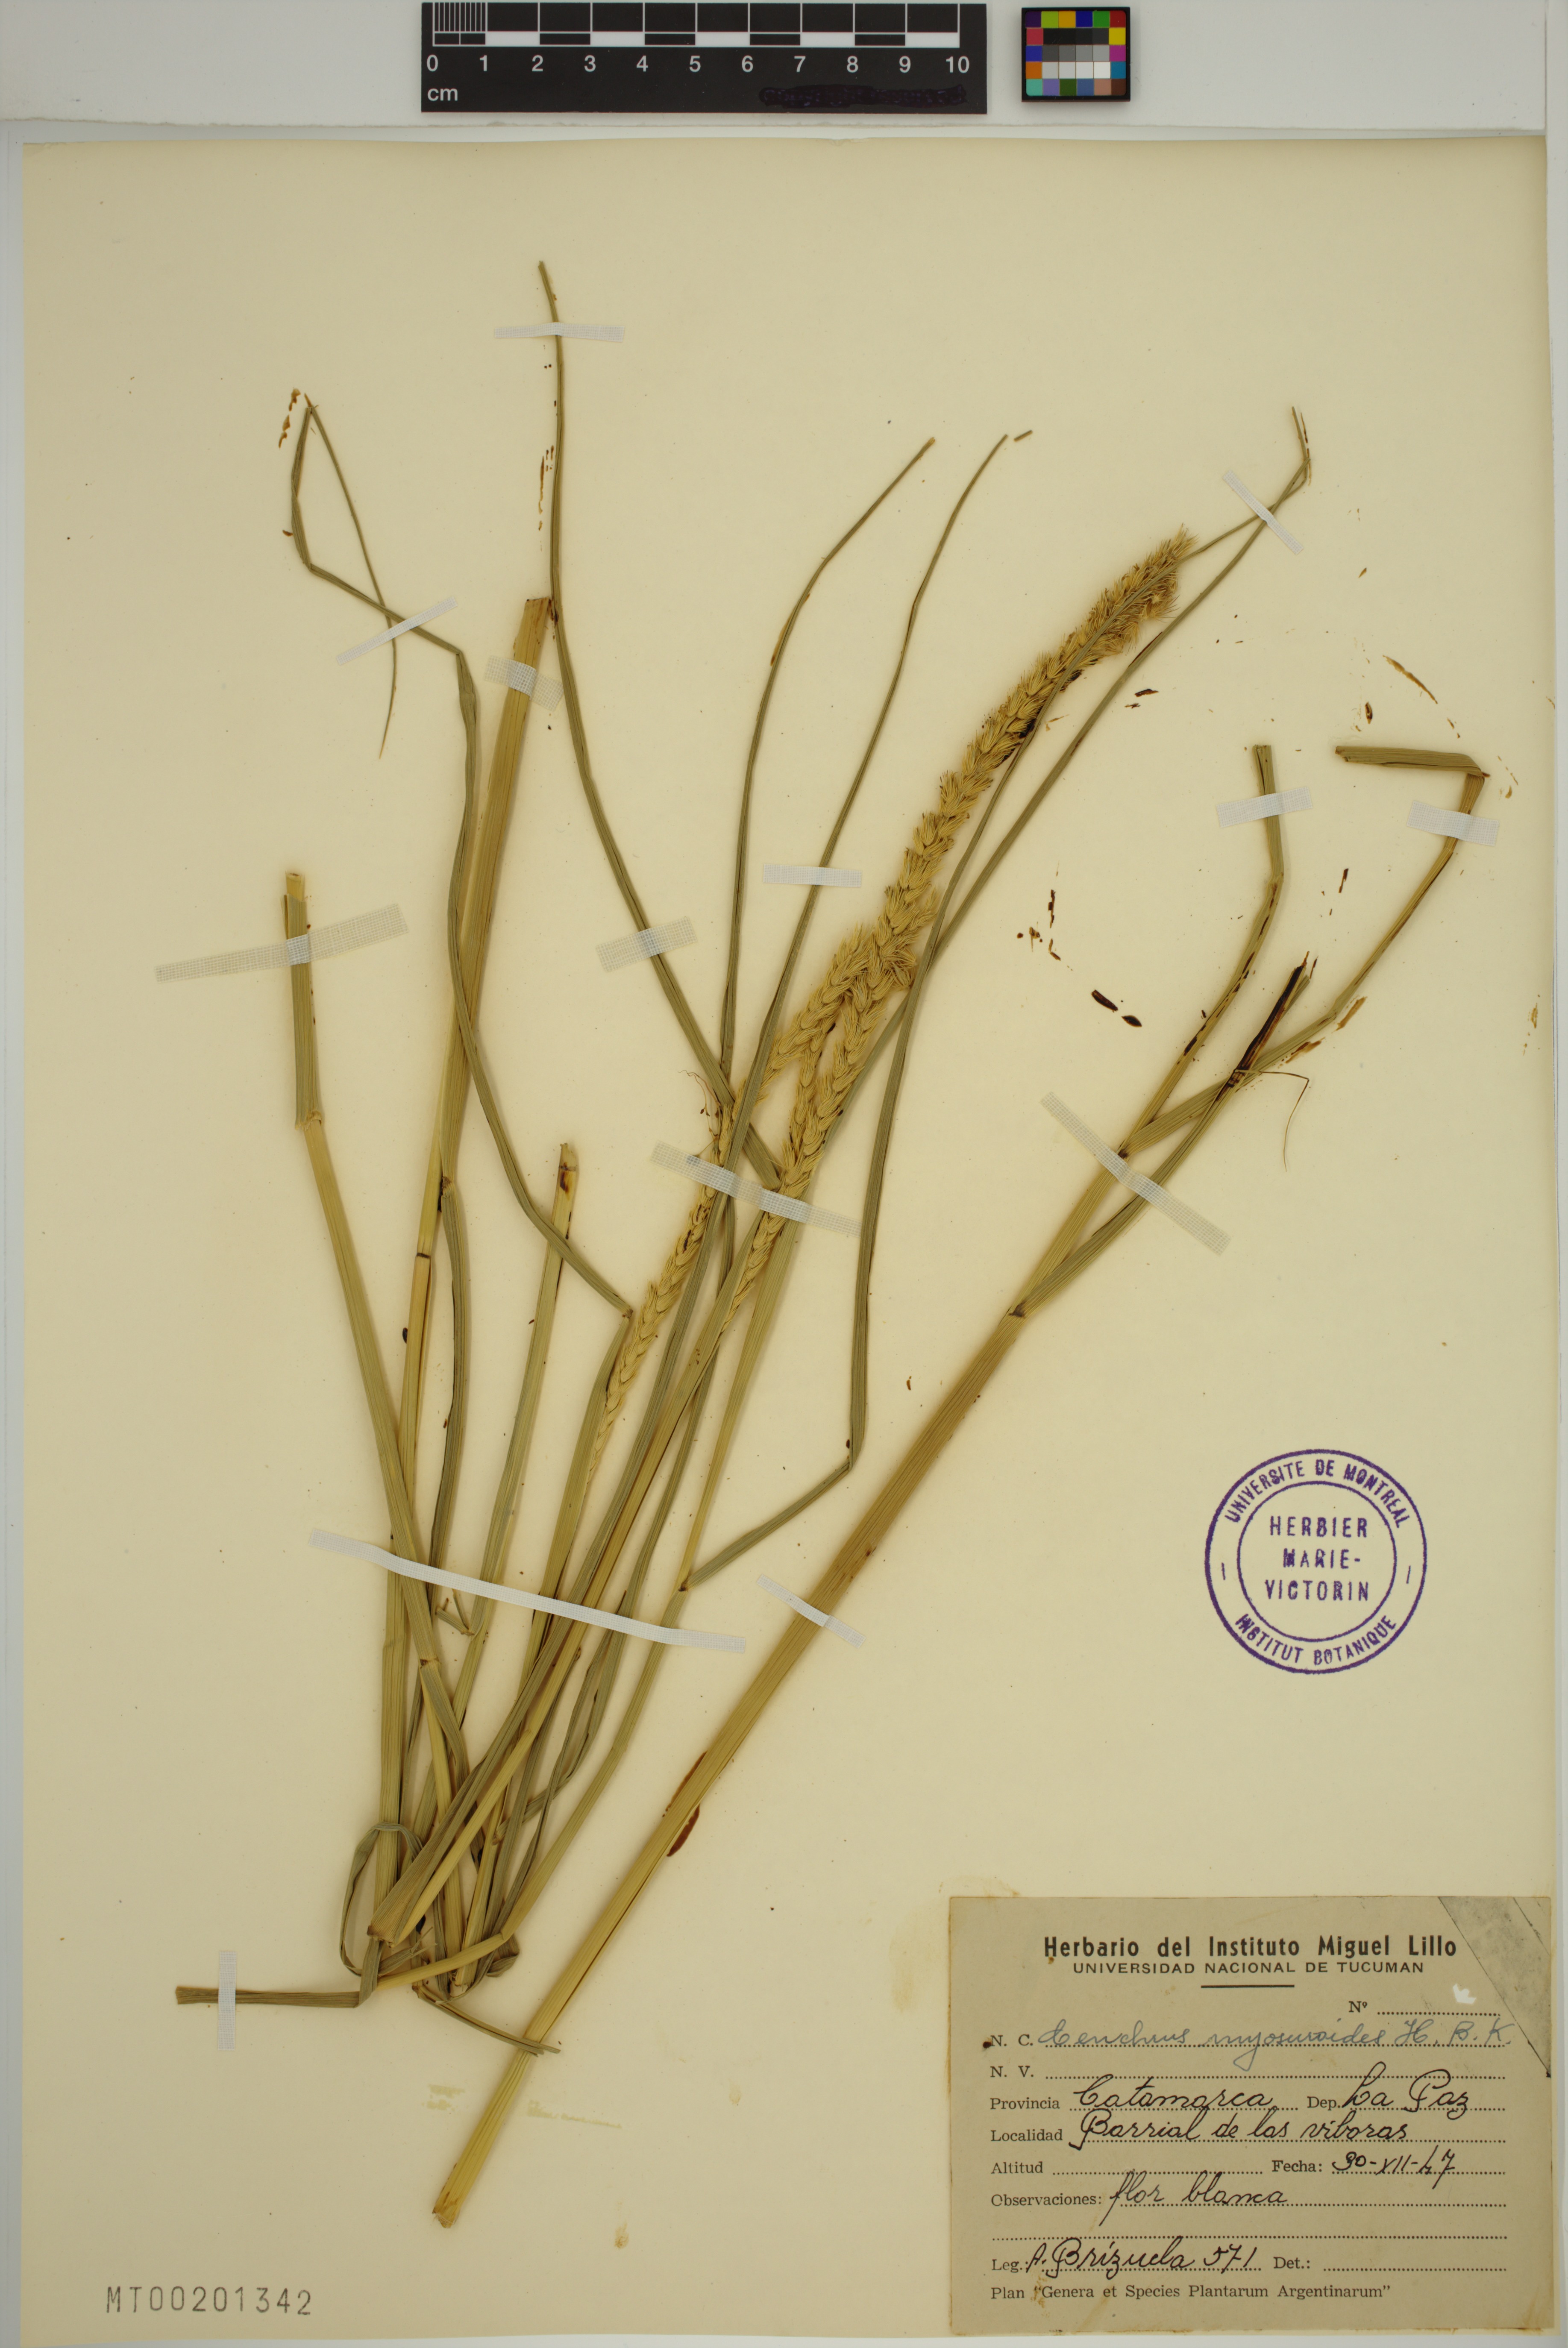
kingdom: Plantae
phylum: Tracheophyta
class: Liliopsida
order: Poales
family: Poaceae
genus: Cenchrus
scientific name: Cenchrus myosuroides
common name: Big sandbur
